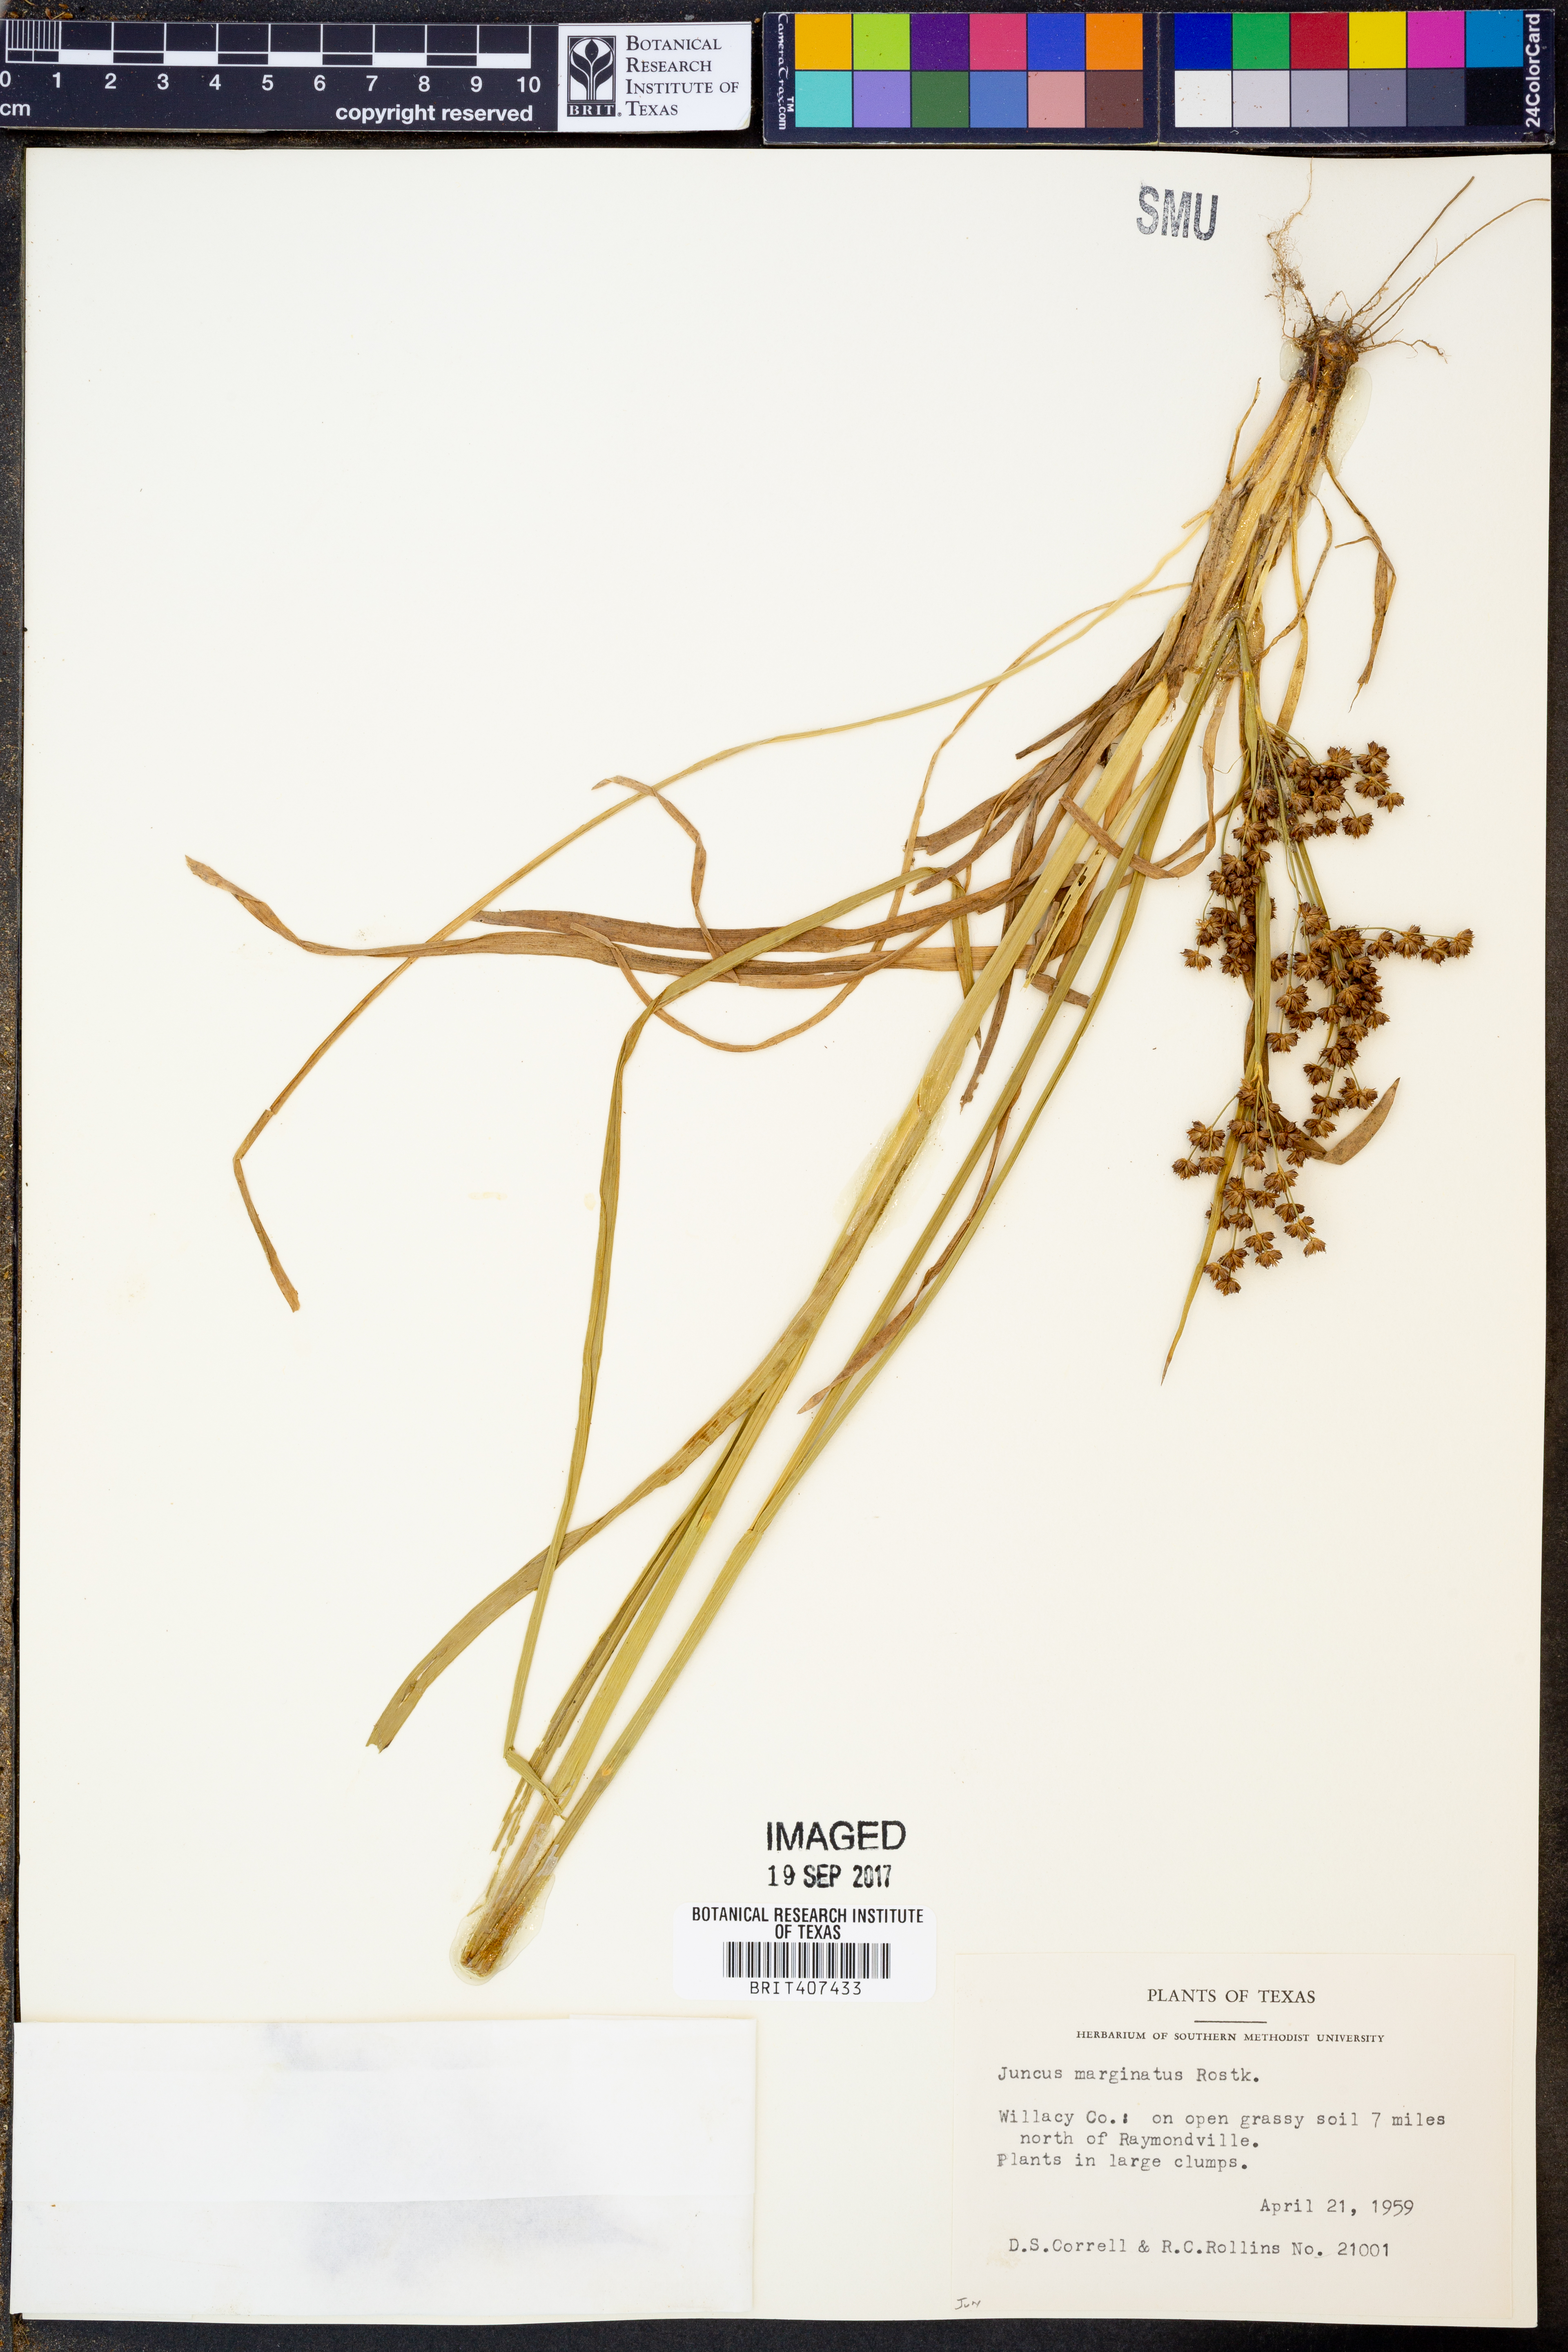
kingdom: Plantae
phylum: Tracheophyta
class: Liliopsida
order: Poales
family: Juncaceae
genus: Juncus
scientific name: Juncus marginatus
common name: Grass-leaf rush
